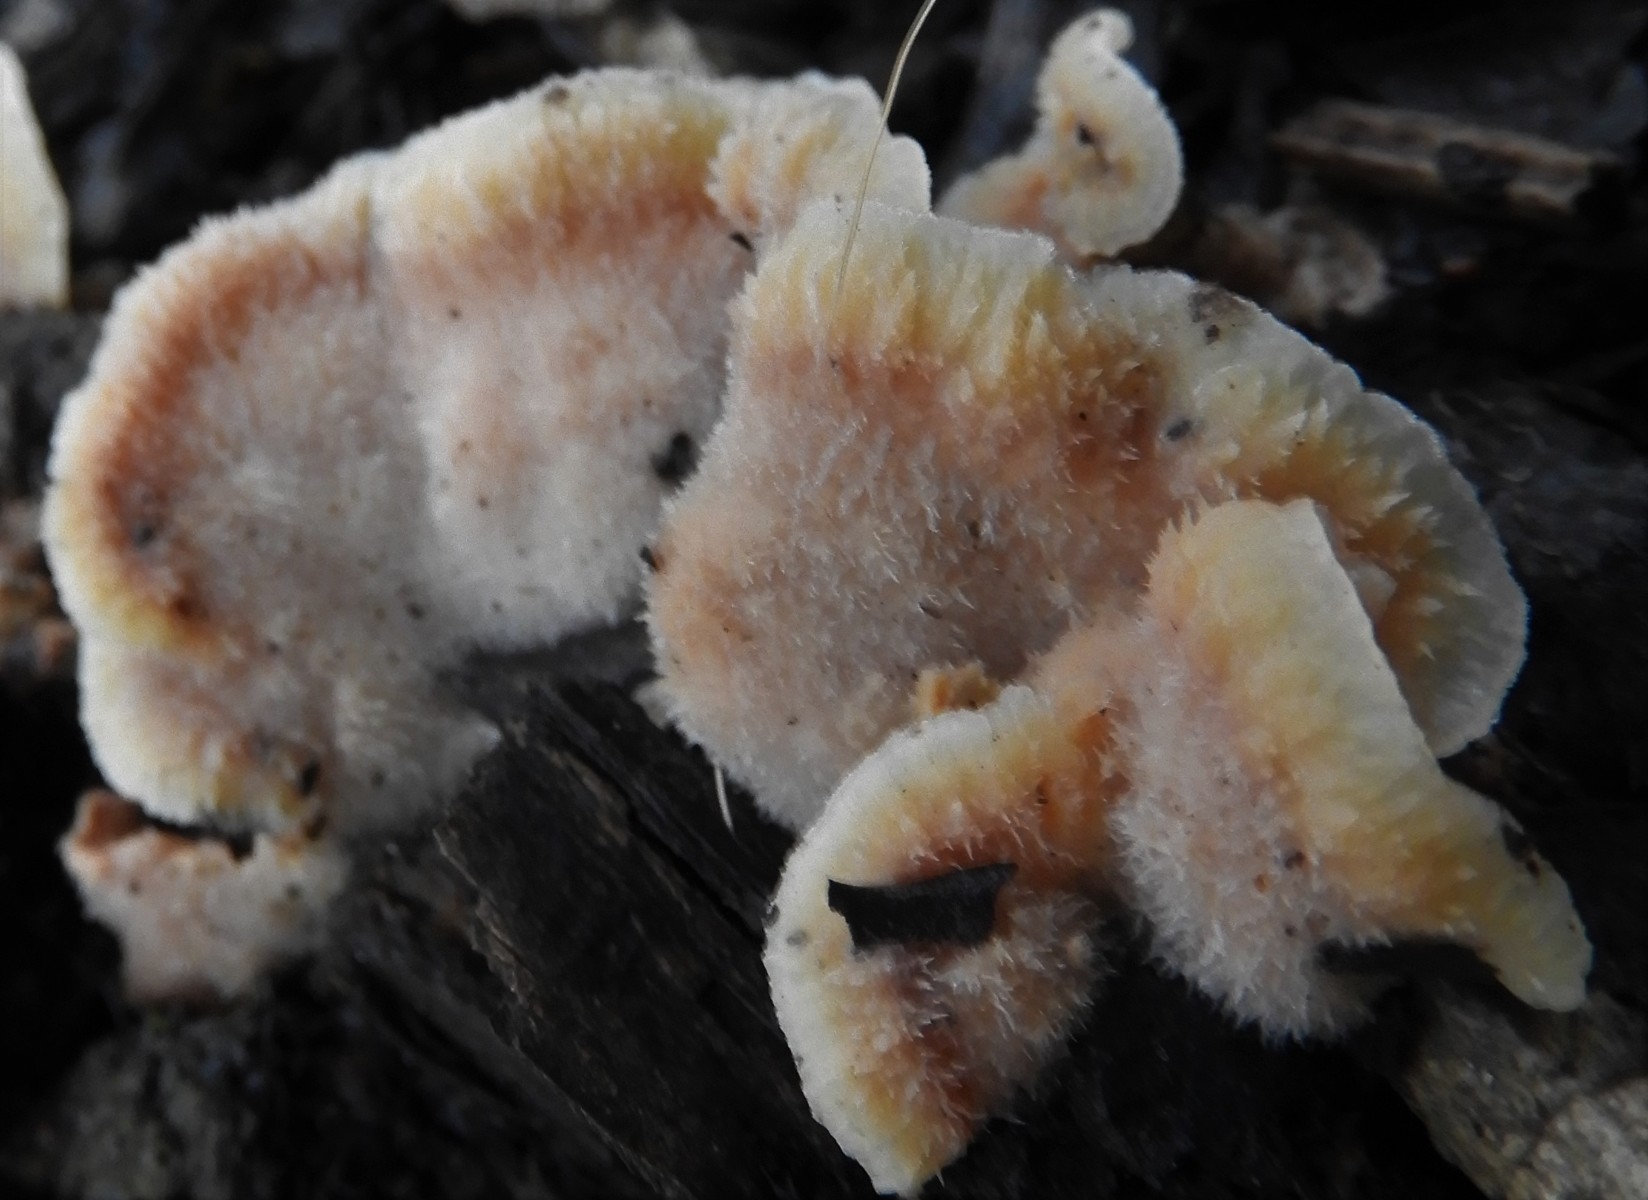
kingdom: Fungi
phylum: Basidiomycota
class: Agaricomycetes
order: Polyporales
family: Meruliaceae
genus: Phlebia
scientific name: Phlebia tremellosa
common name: bævrende åresvamp
